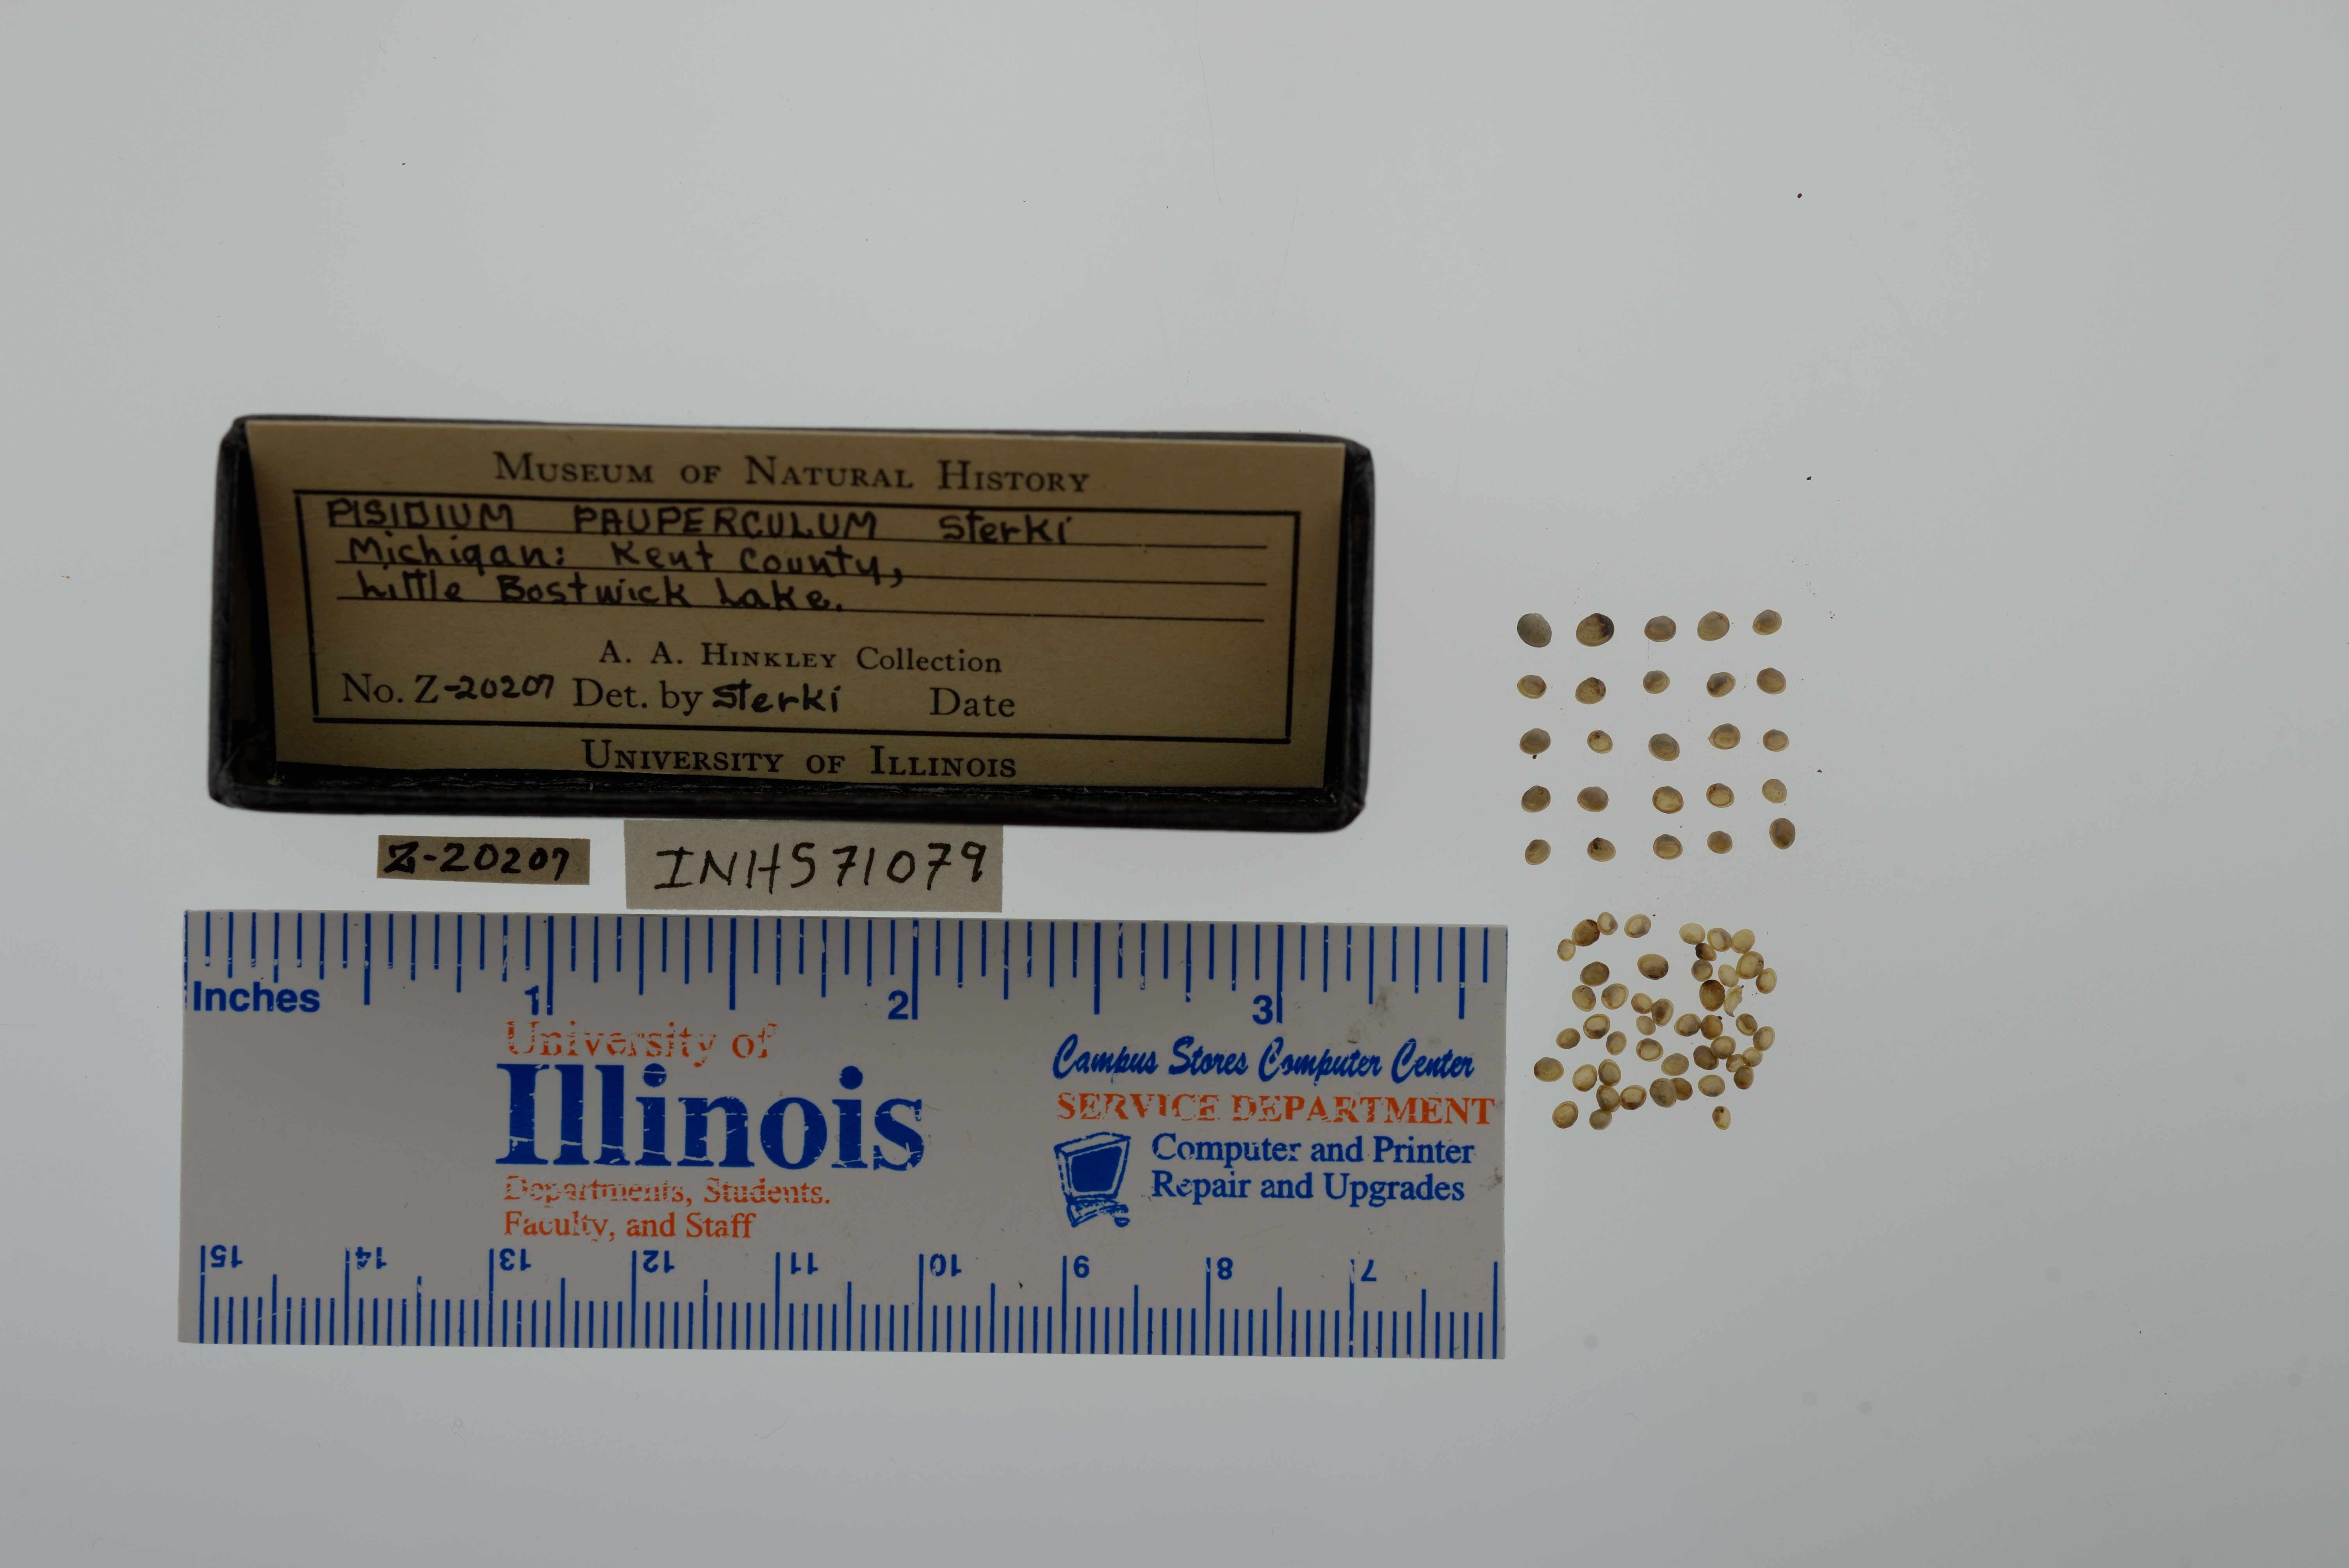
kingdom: Animalia
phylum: Mollusca
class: Bivalvia
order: Sphaeriida
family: Sphaeriidae
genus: Euglesa
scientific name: Euglesa nitida
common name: Shining peaclam
